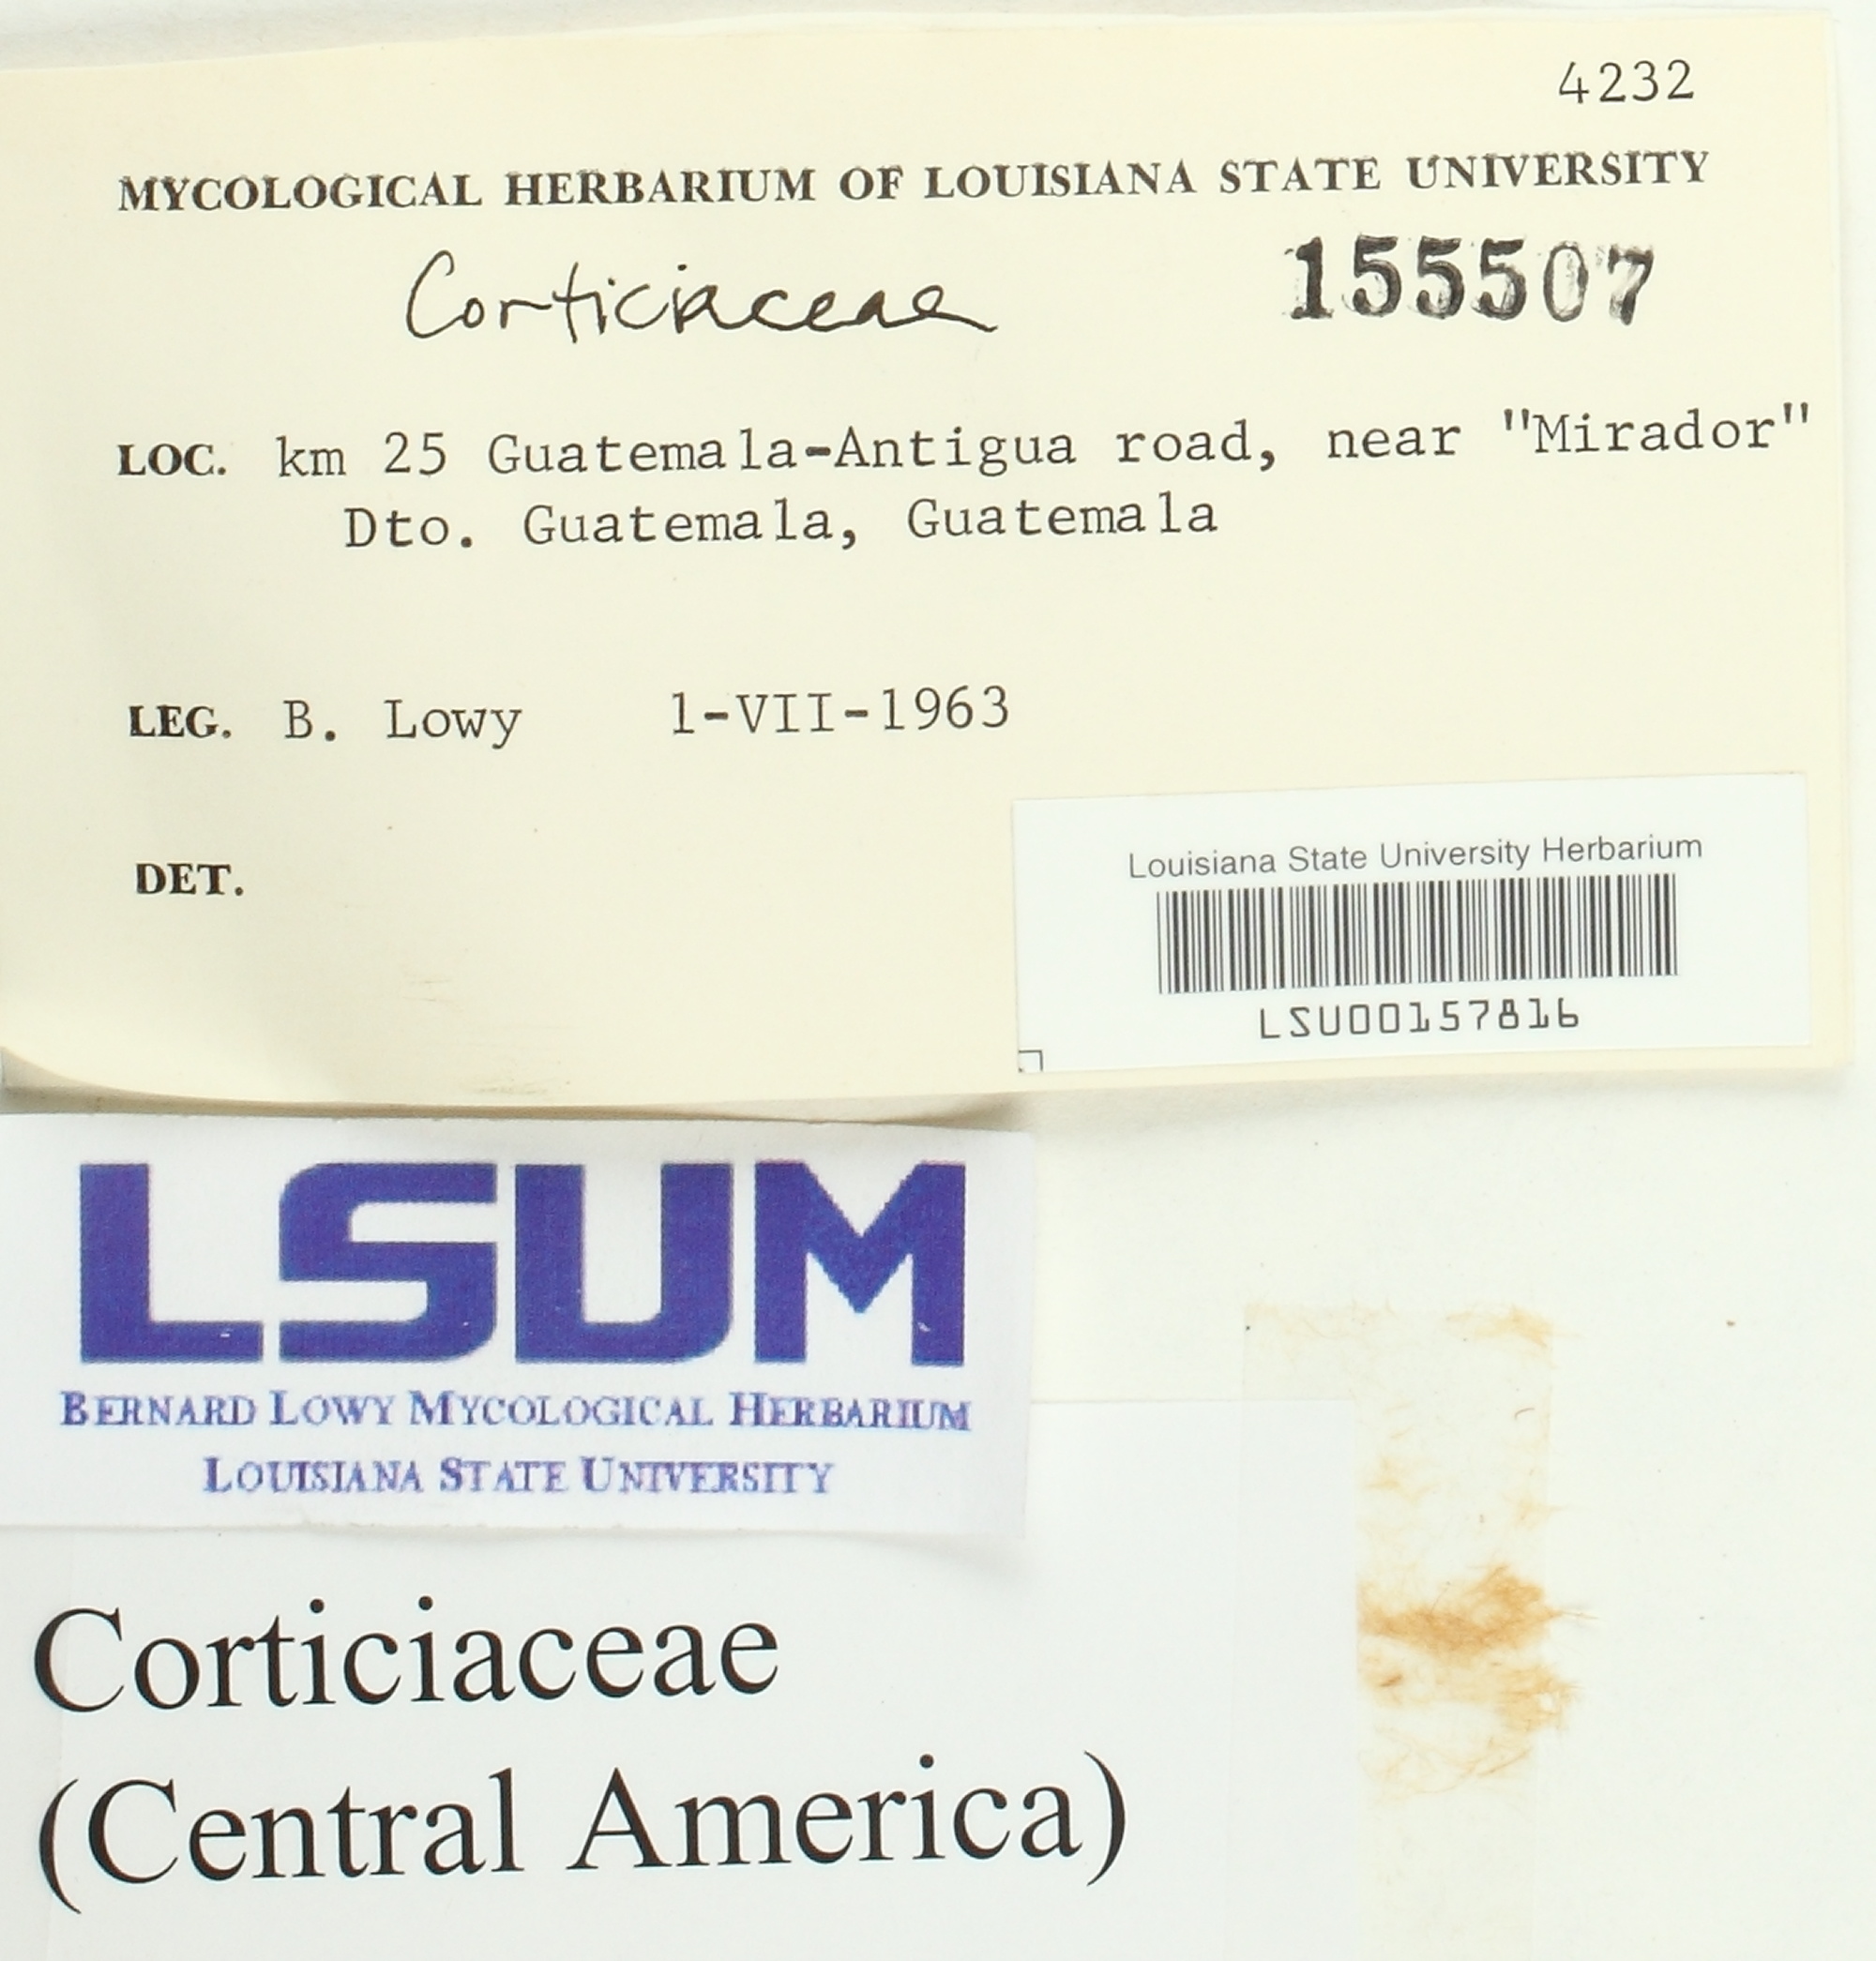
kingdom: Fungi
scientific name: Fungi
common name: Fungi
